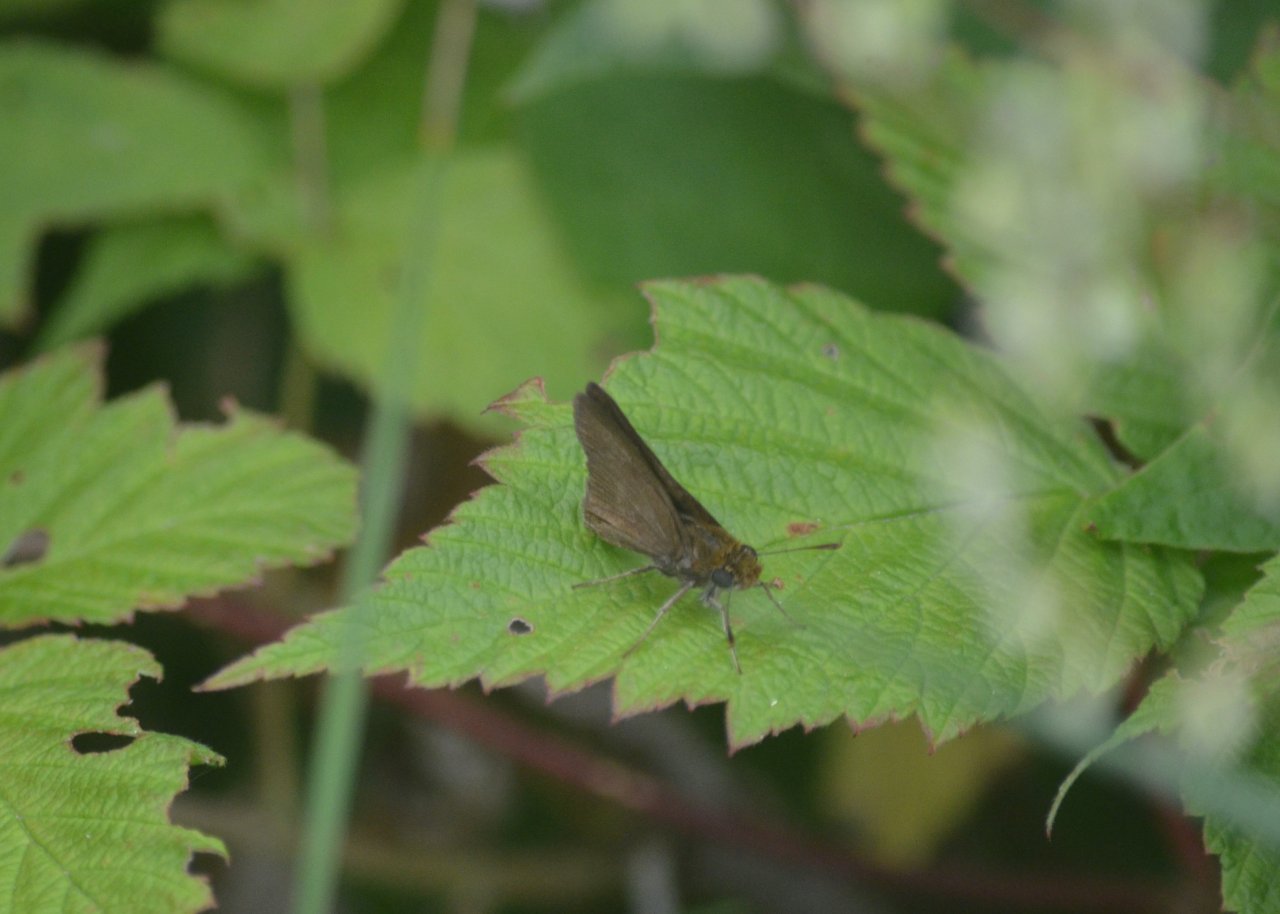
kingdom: Animalia
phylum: Arthropoda
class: Insecta
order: Lepidoptera
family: Hesperiidae
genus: Euphyes
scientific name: Euphyes vestris
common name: Dun Skipper
